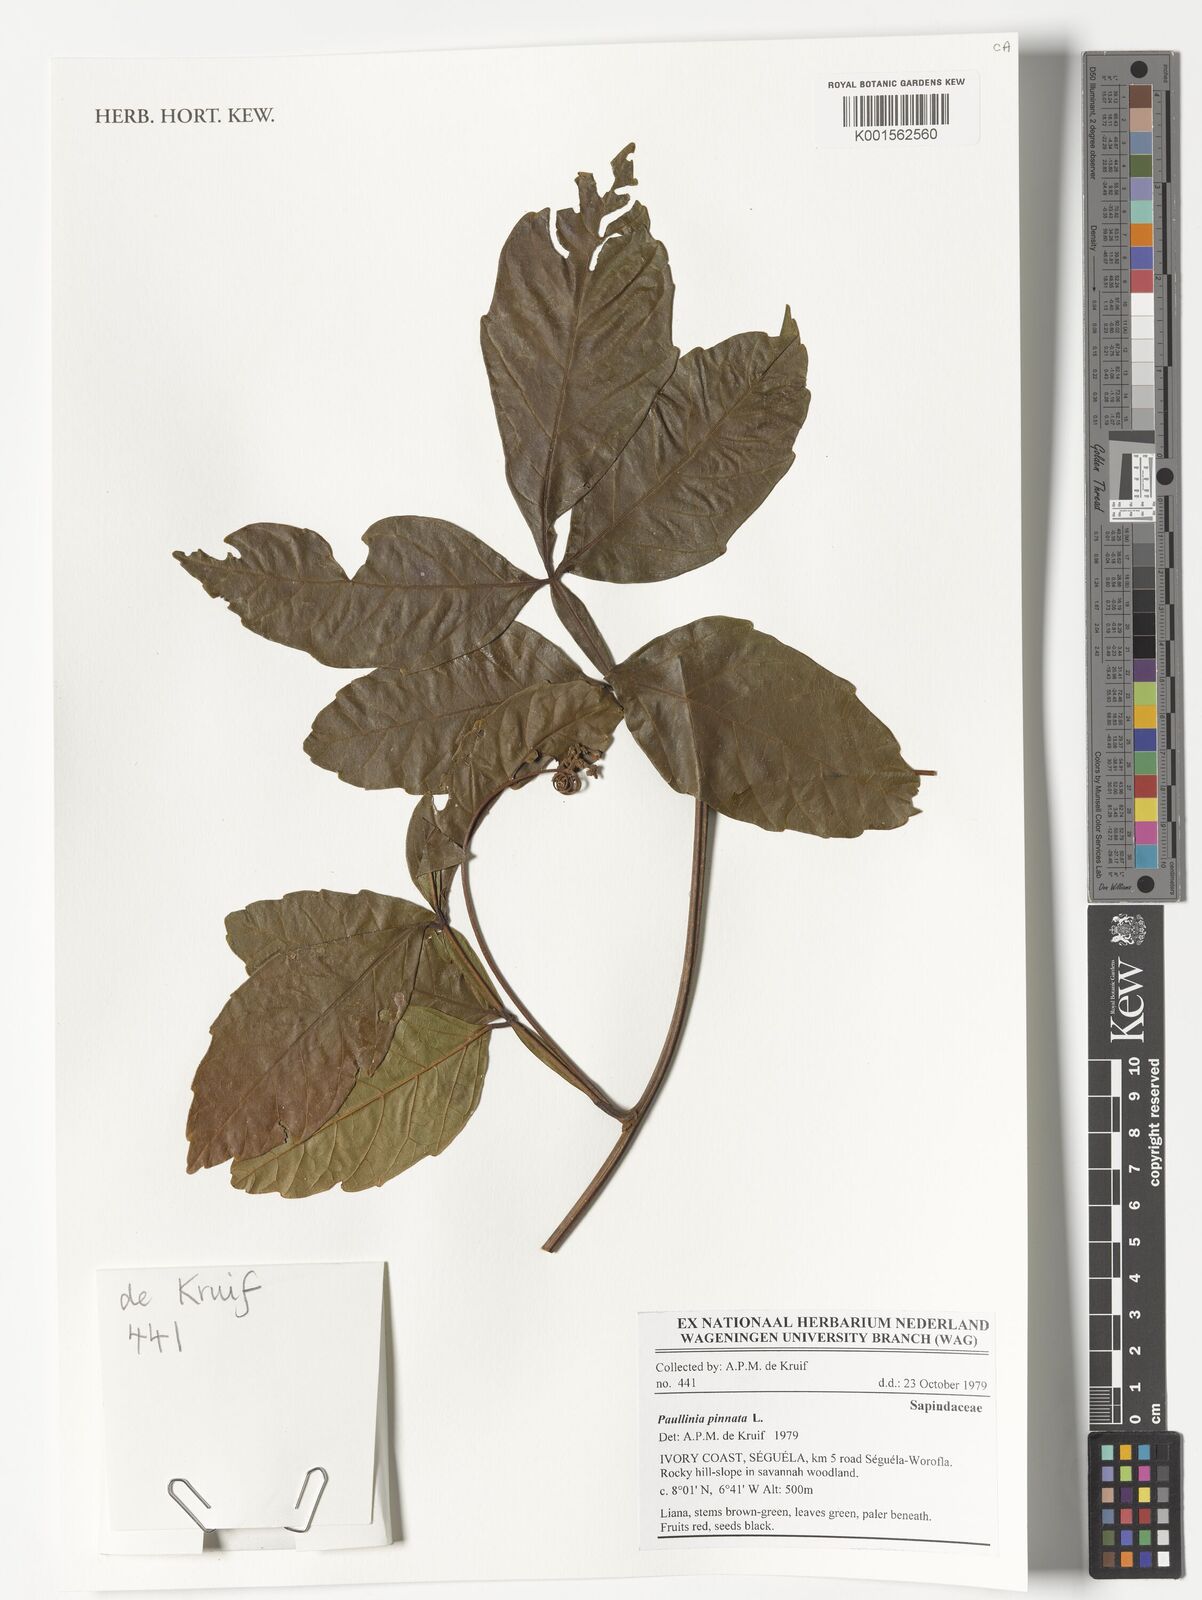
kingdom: Plantae
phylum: Tracheophyta
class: Magnoliopsida
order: Sapindales
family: Sapindaceae
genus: Paullinia
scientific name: Paullinia pinnata
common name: Barbasco
